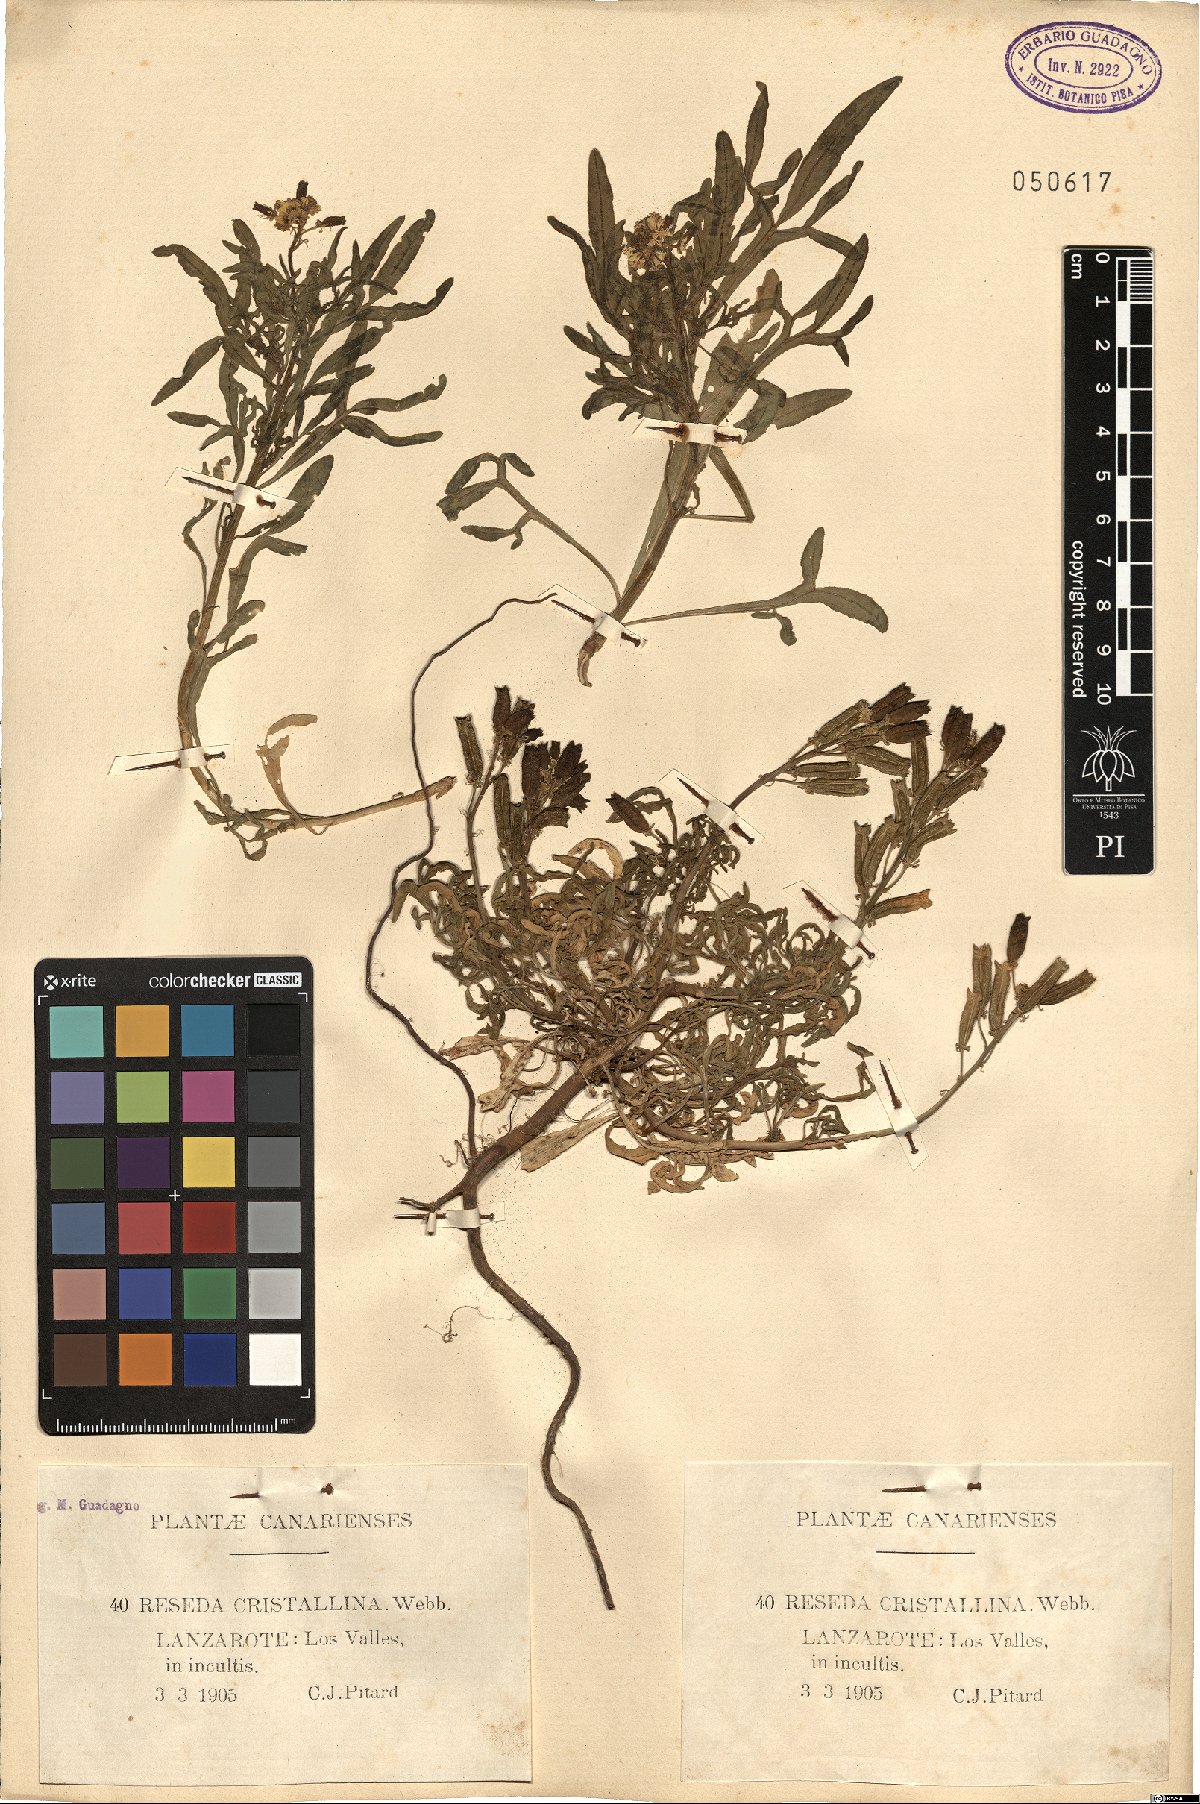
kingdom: Plantae
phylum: Tracheophyta
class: Magnoliopsida
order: Brassicales
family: Resedaceae
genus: Reseda
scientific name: Reseda crystallina
